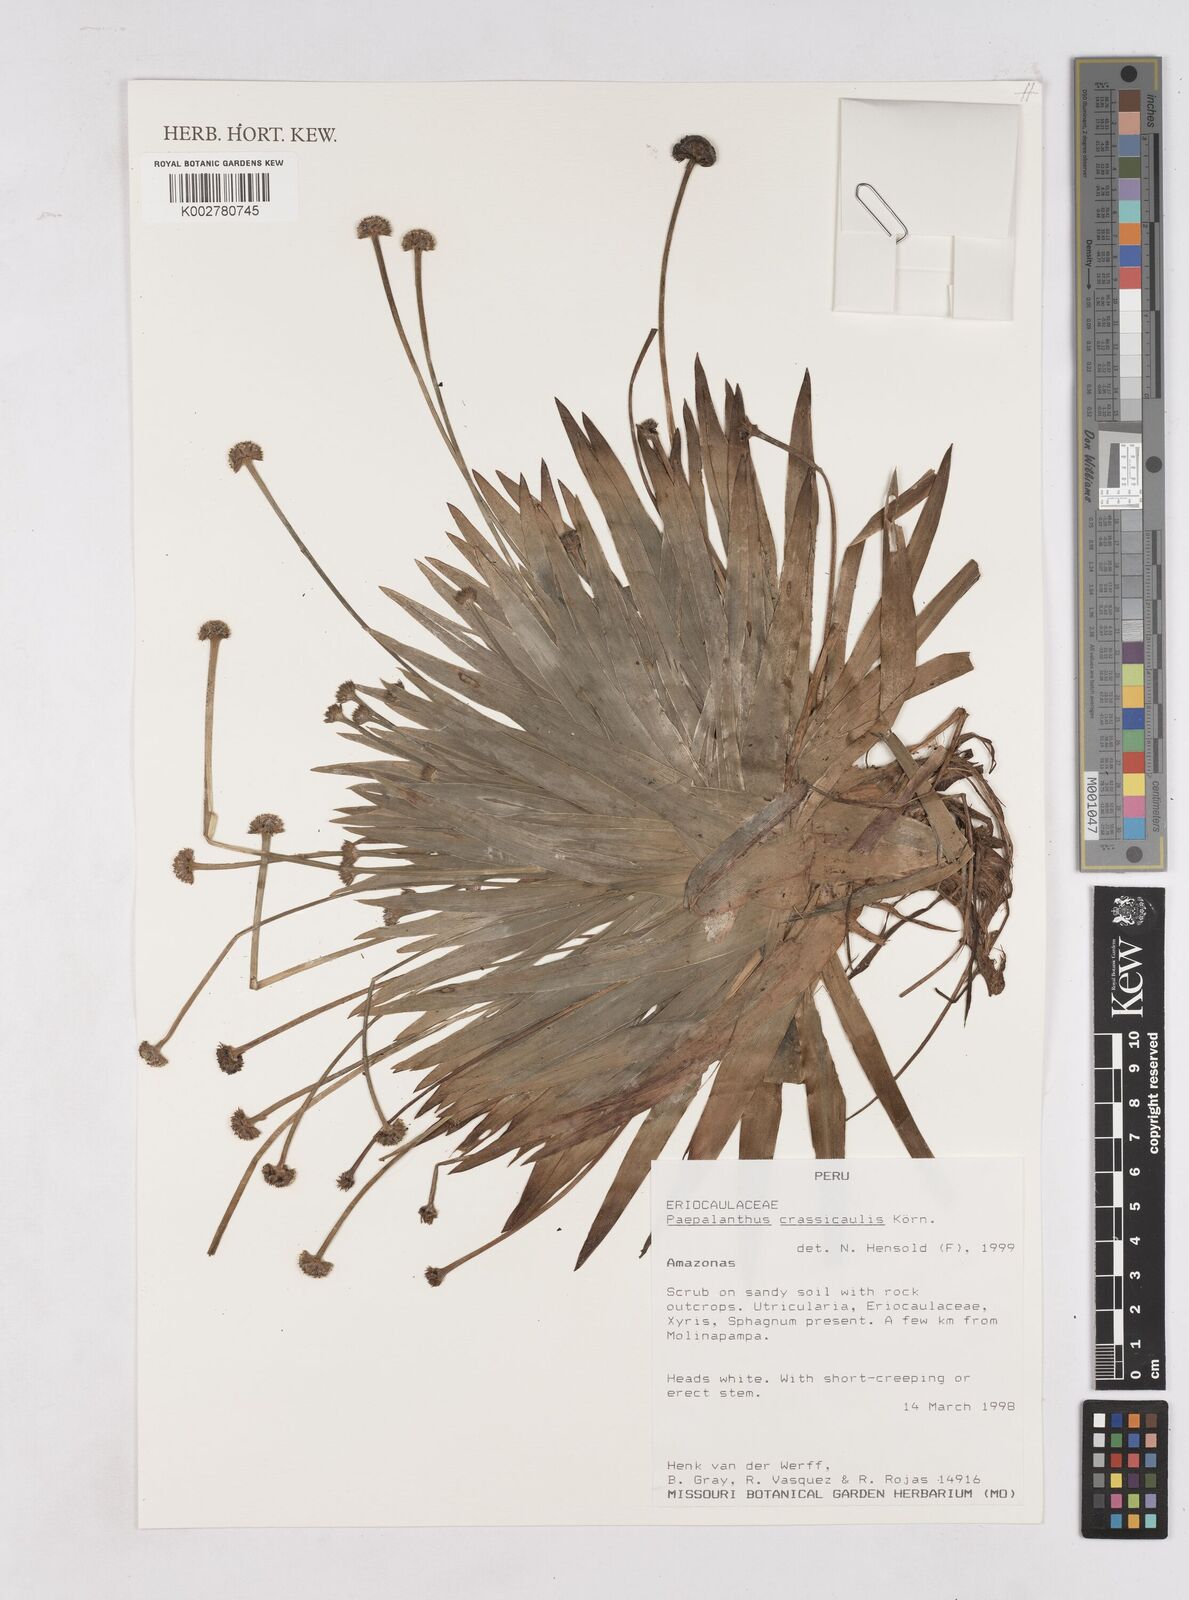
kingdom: Plantae
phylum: Tracheophyta
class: Liliopsida
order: Poales
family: Eriocaulaceae
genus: Paepalanthus
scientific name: Paepalanthus crassicaulis
